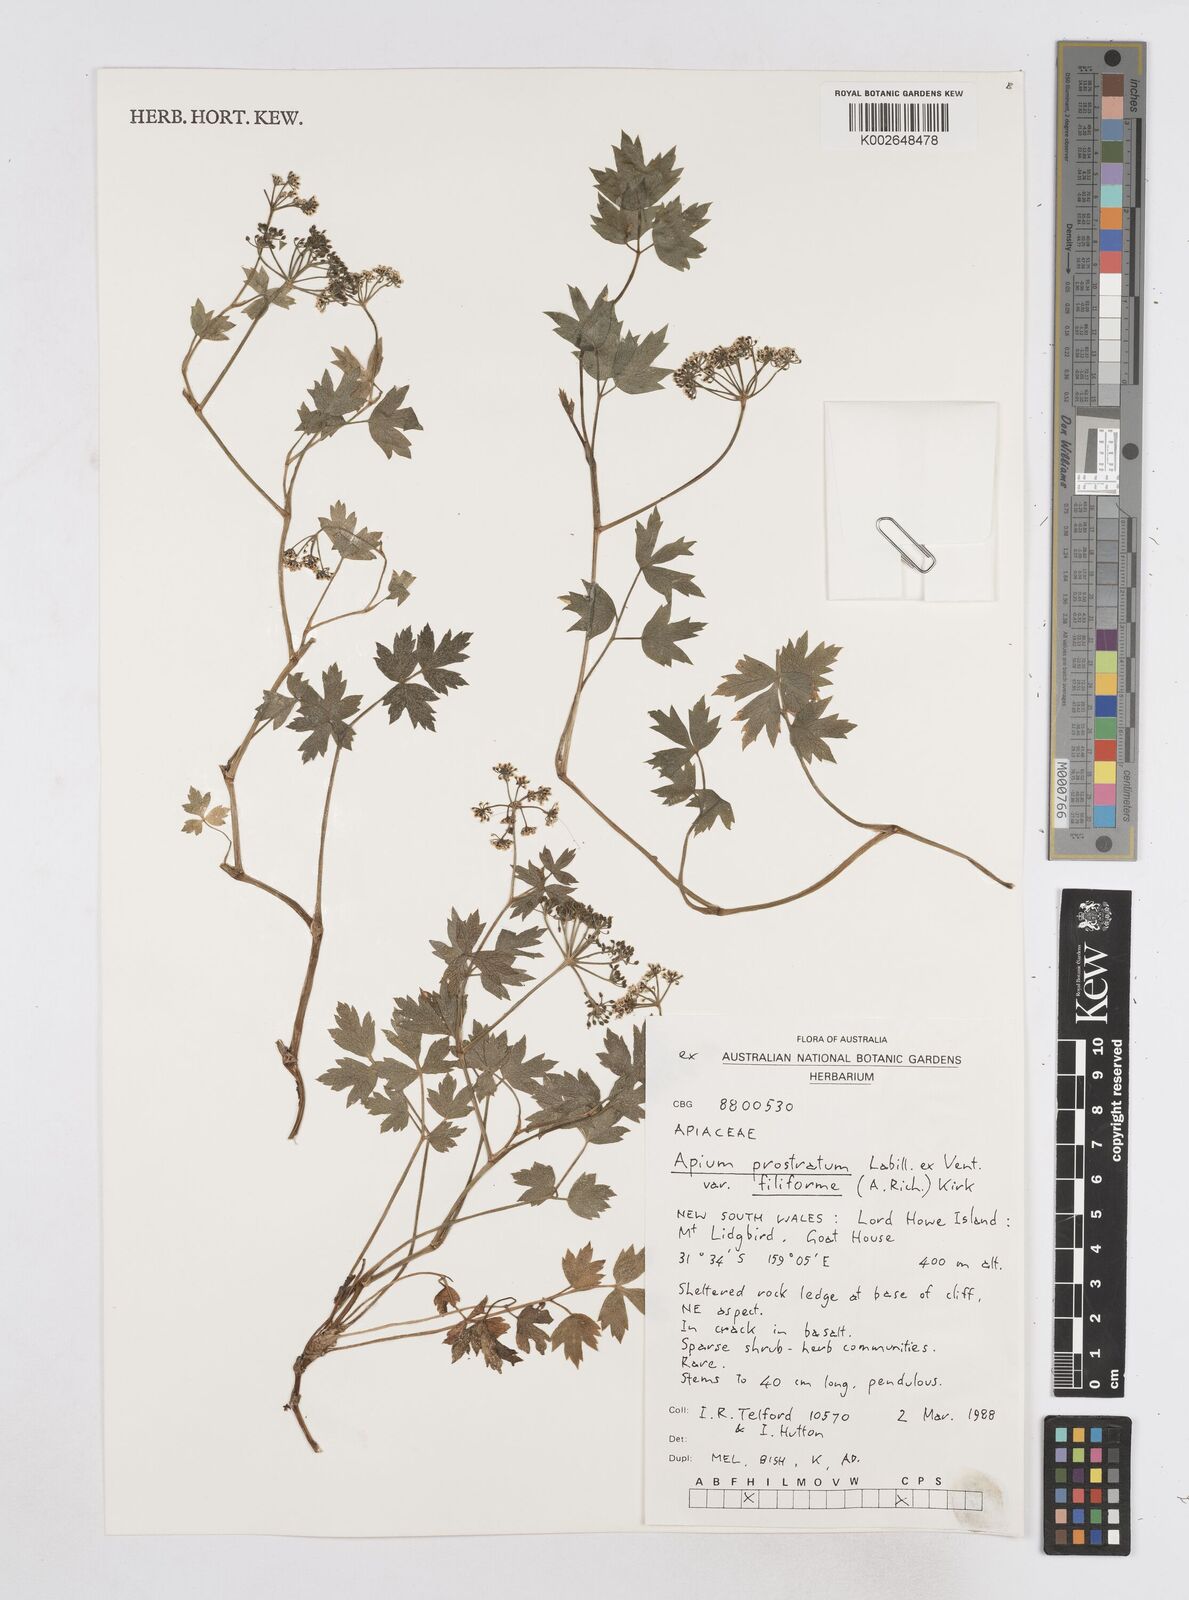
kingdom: Plantae
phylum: Tracheophyta
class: Magnoliopsida
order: Apiales
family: Apiaceae
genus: Apium
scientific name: Apium prostratum
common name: Prostrate marshwort
